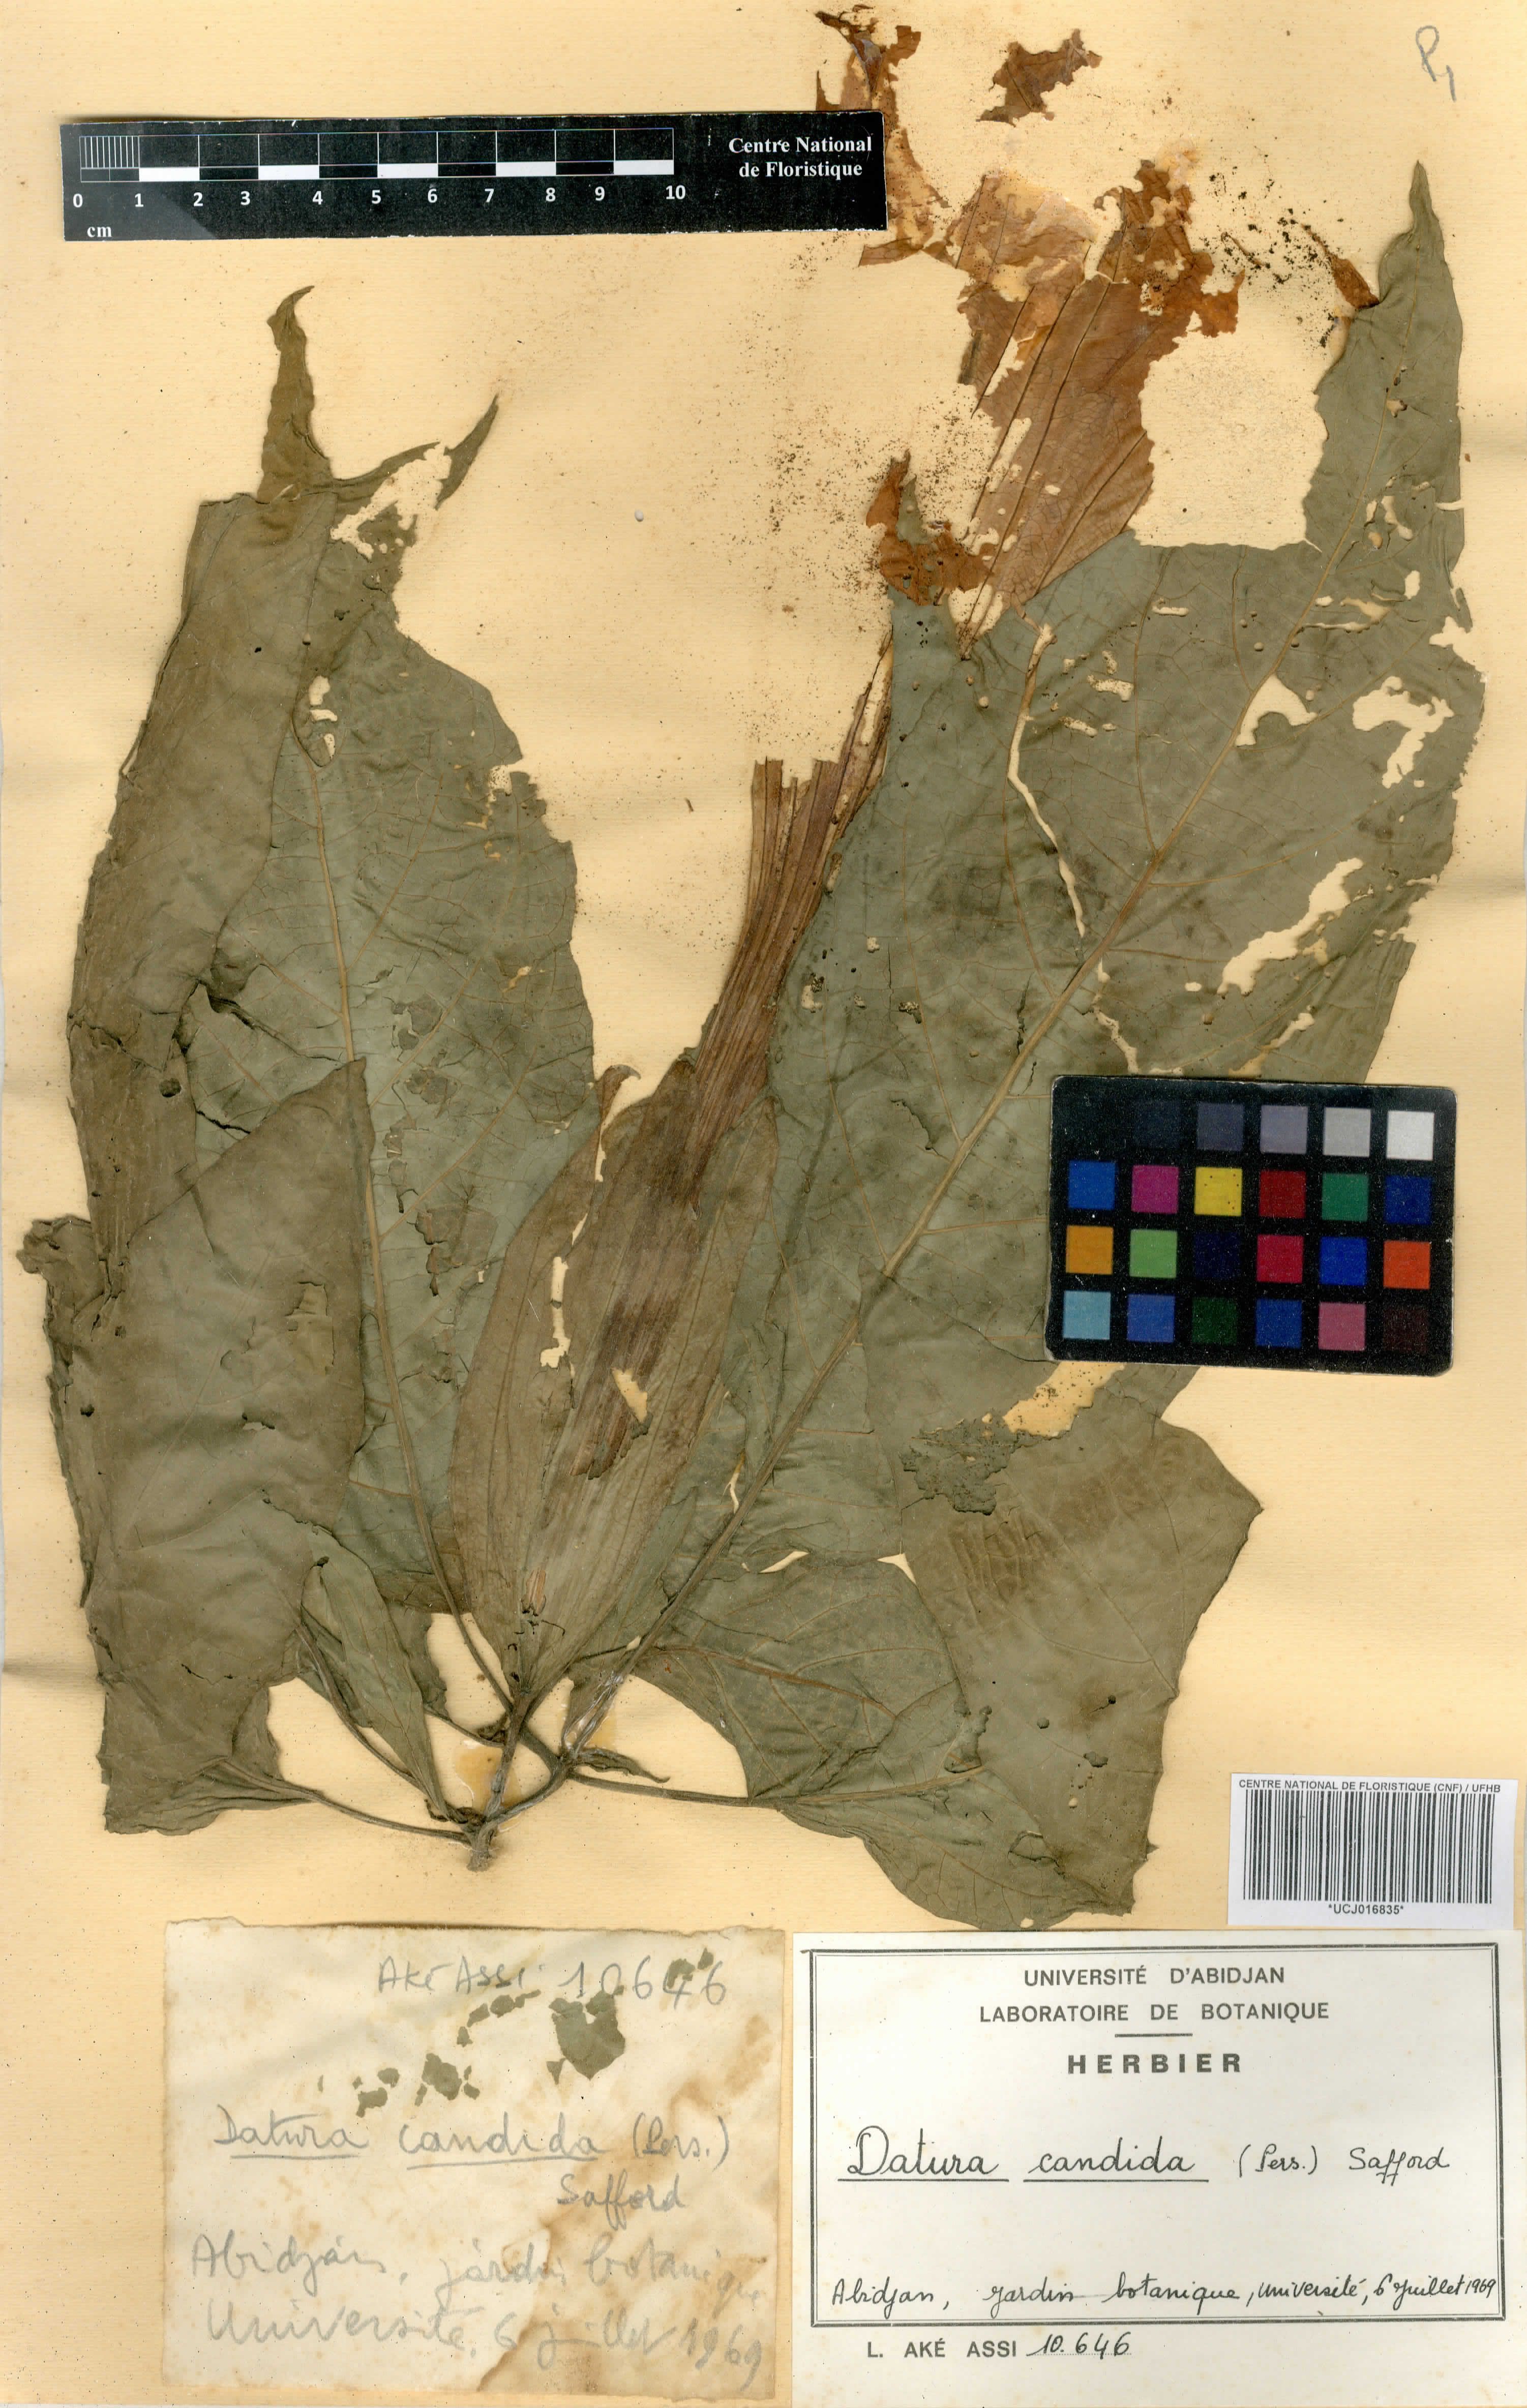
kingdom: Plantae
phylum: Tracheophyta
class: Magnoliopsida
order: Solanales
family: Solanaceae
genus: Brugmansia
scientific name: Brugmansia candida
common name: Angel's-trumpet
